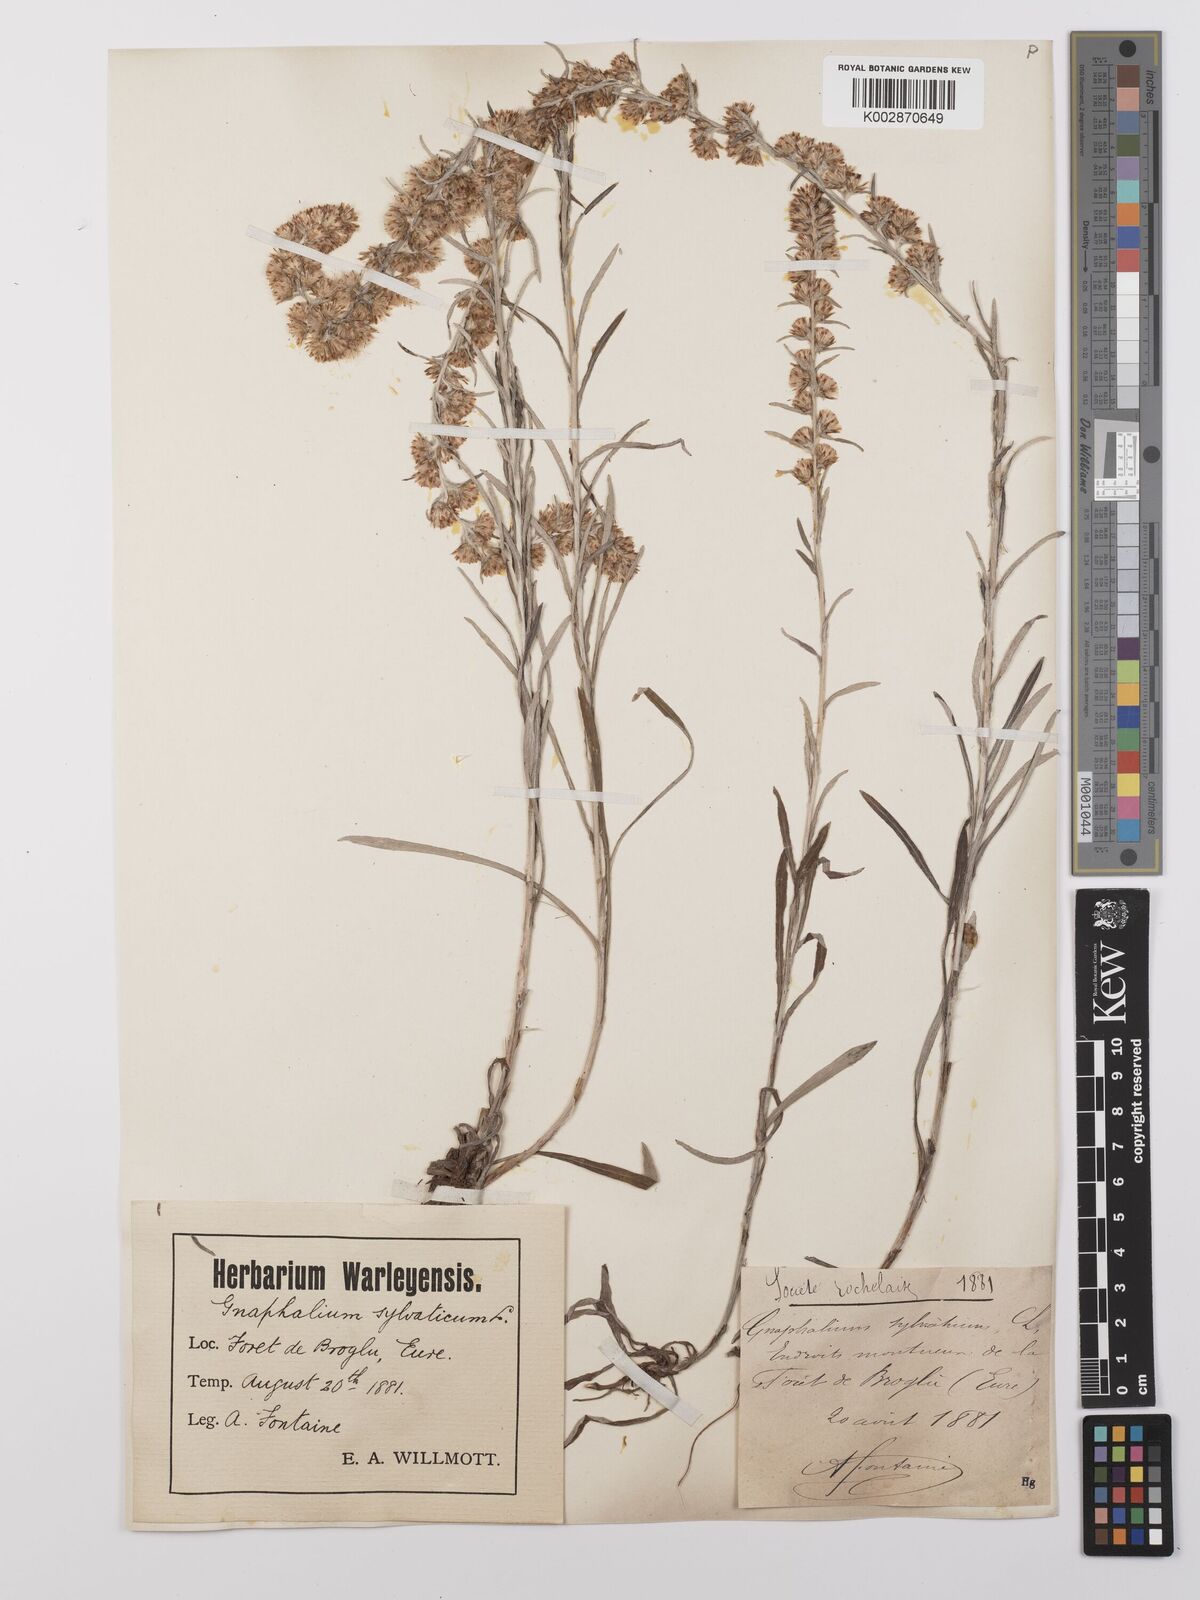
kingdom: Plantae
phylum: Tracheophyta
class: Magnoliopsida
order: Asterales
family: Asteraceae
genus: Omalotheca
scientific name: Omalotheca sylvatica
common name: Heath cudweed
